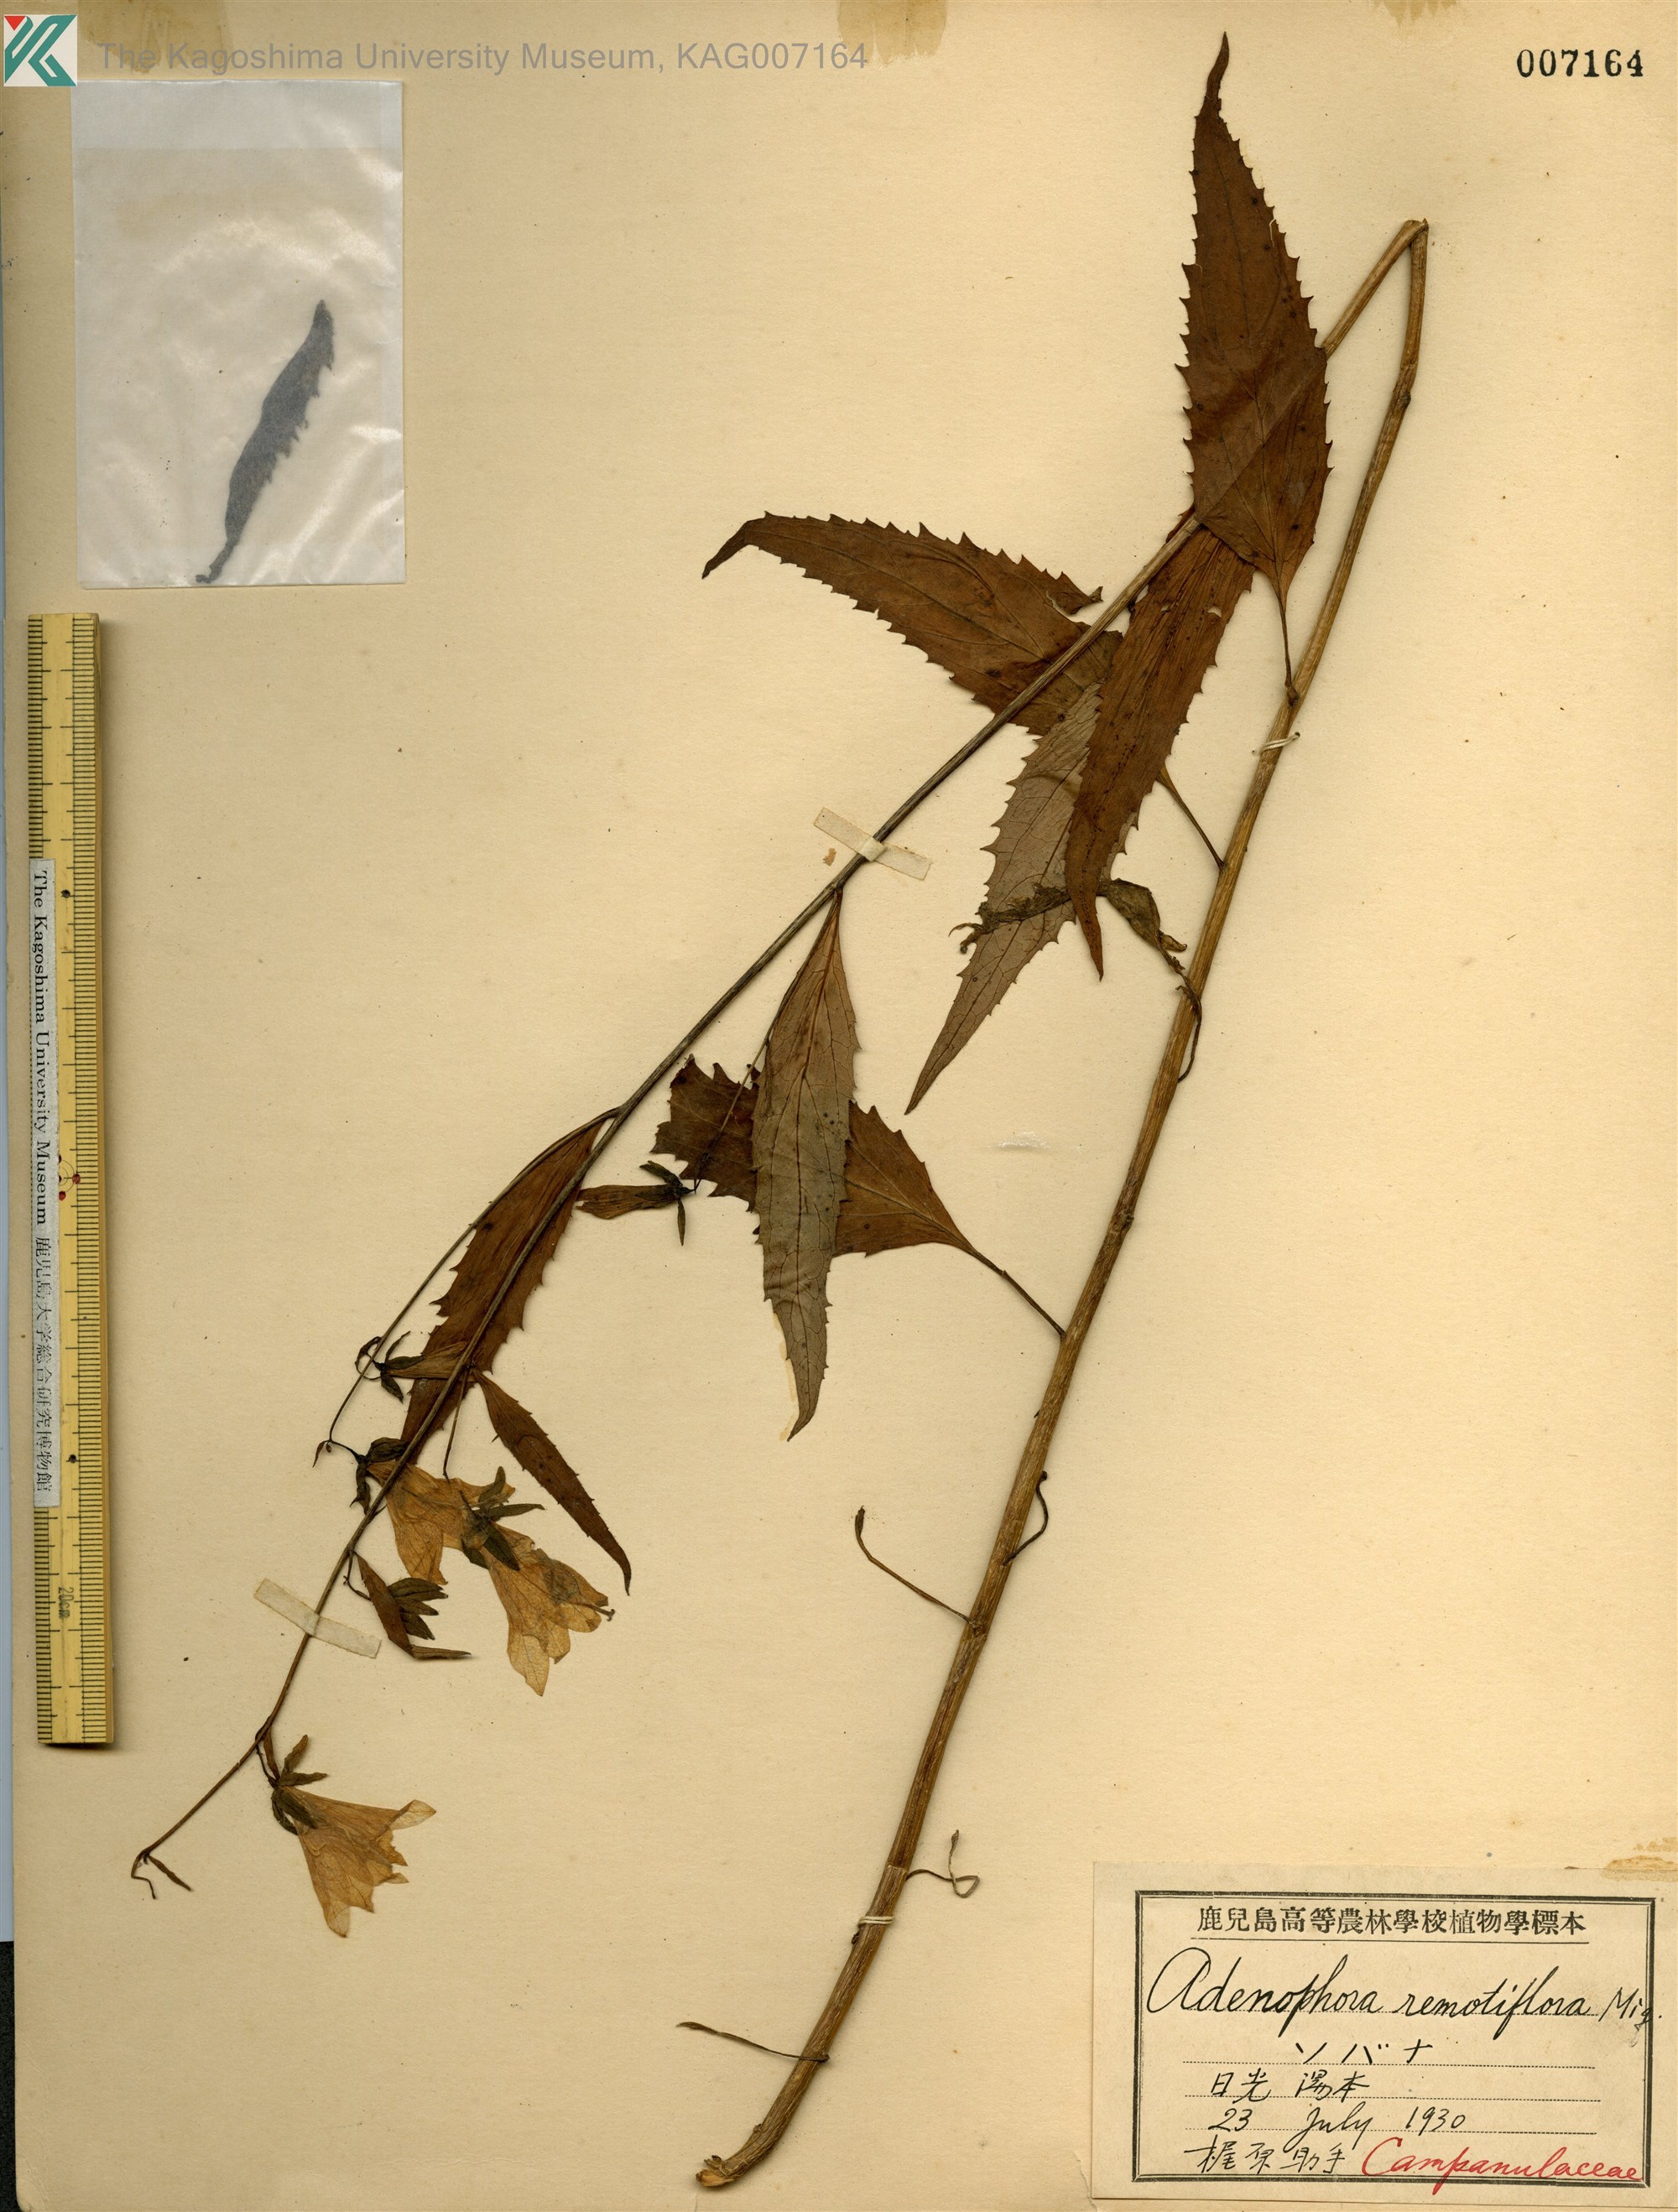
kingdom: Plantae
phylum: Tracheophyta
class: Magnoliopsida
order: Asterales
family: Campanulaceae
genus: Adenophora
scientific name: Adenophora remotiflora
